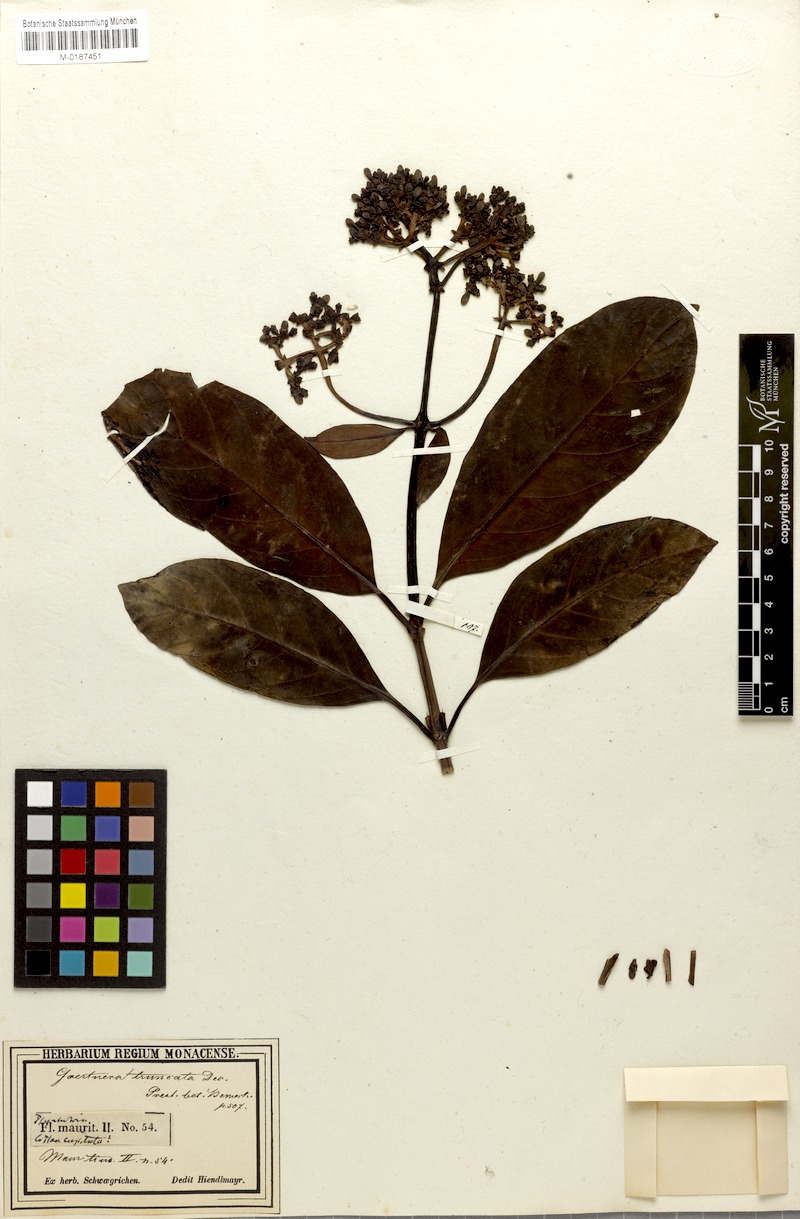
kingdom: Plantae
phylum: Tracheophyta
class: Magnoliopsida
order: Gentianales
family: Rubiaceae
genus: Gaertnera
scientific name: Gaertnera psychotrioides
